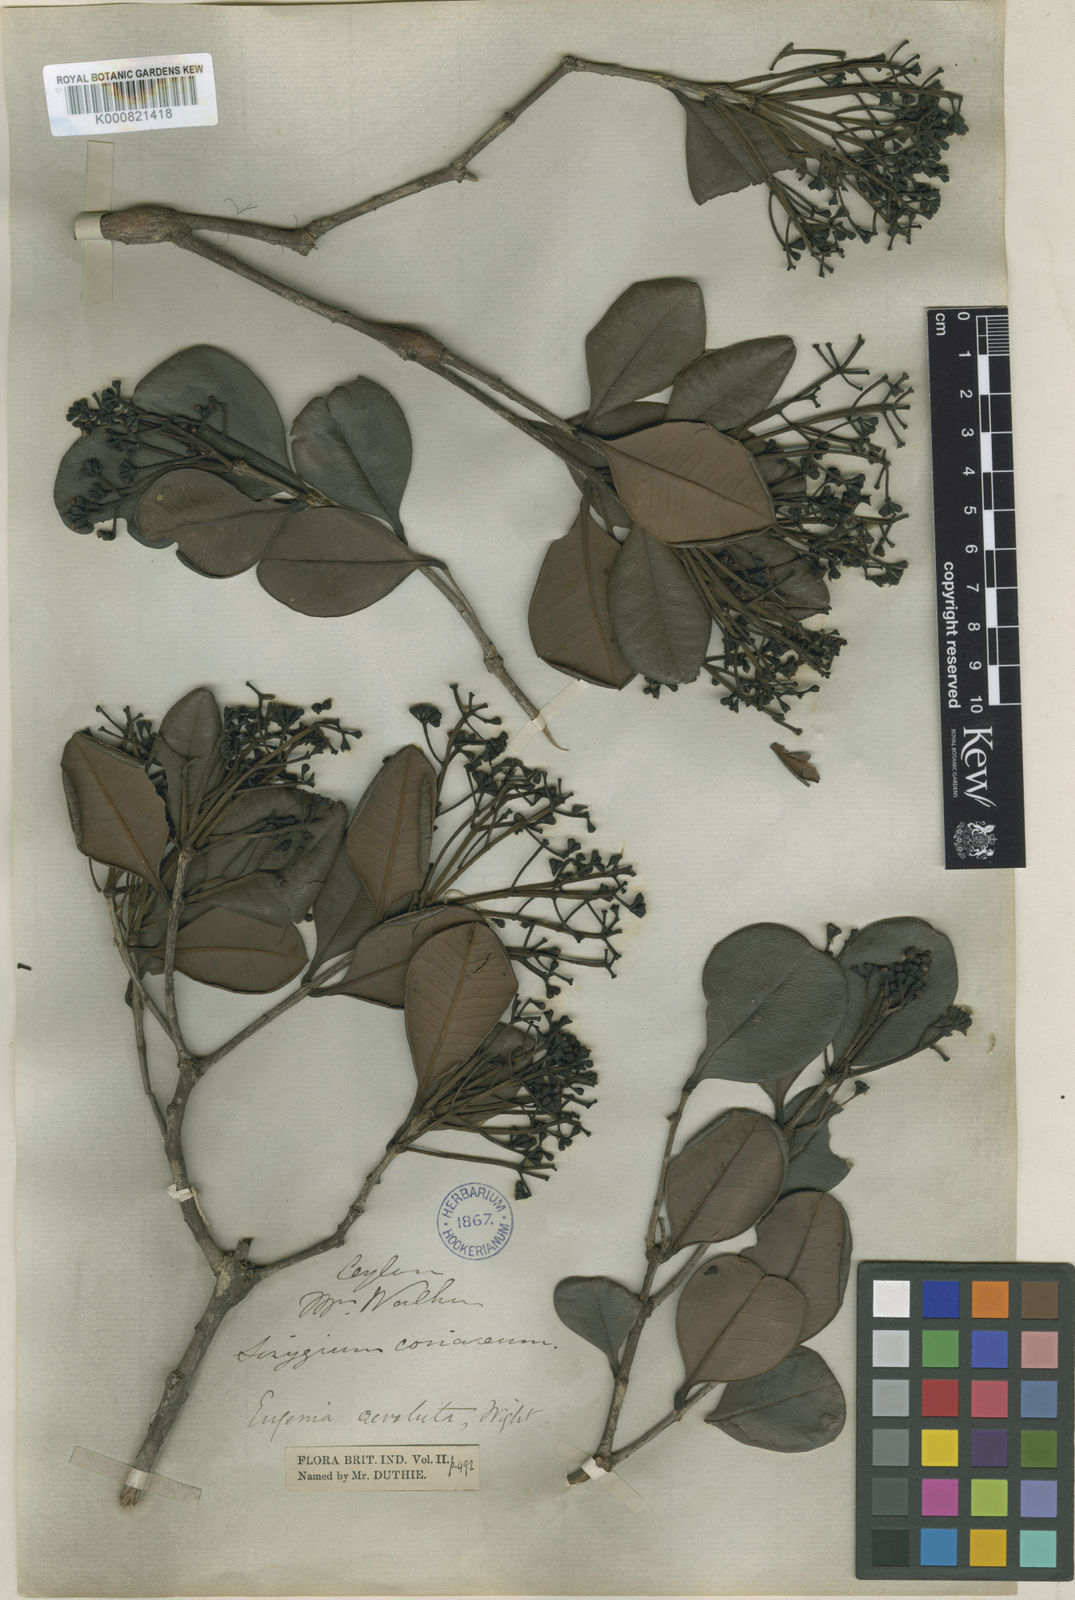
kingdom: Plantae
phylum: Tracheophyta
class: Magnoliopsida
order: Myrtales
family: Myrtaceae
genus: Syzygium
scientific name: Syzygium revolutum
